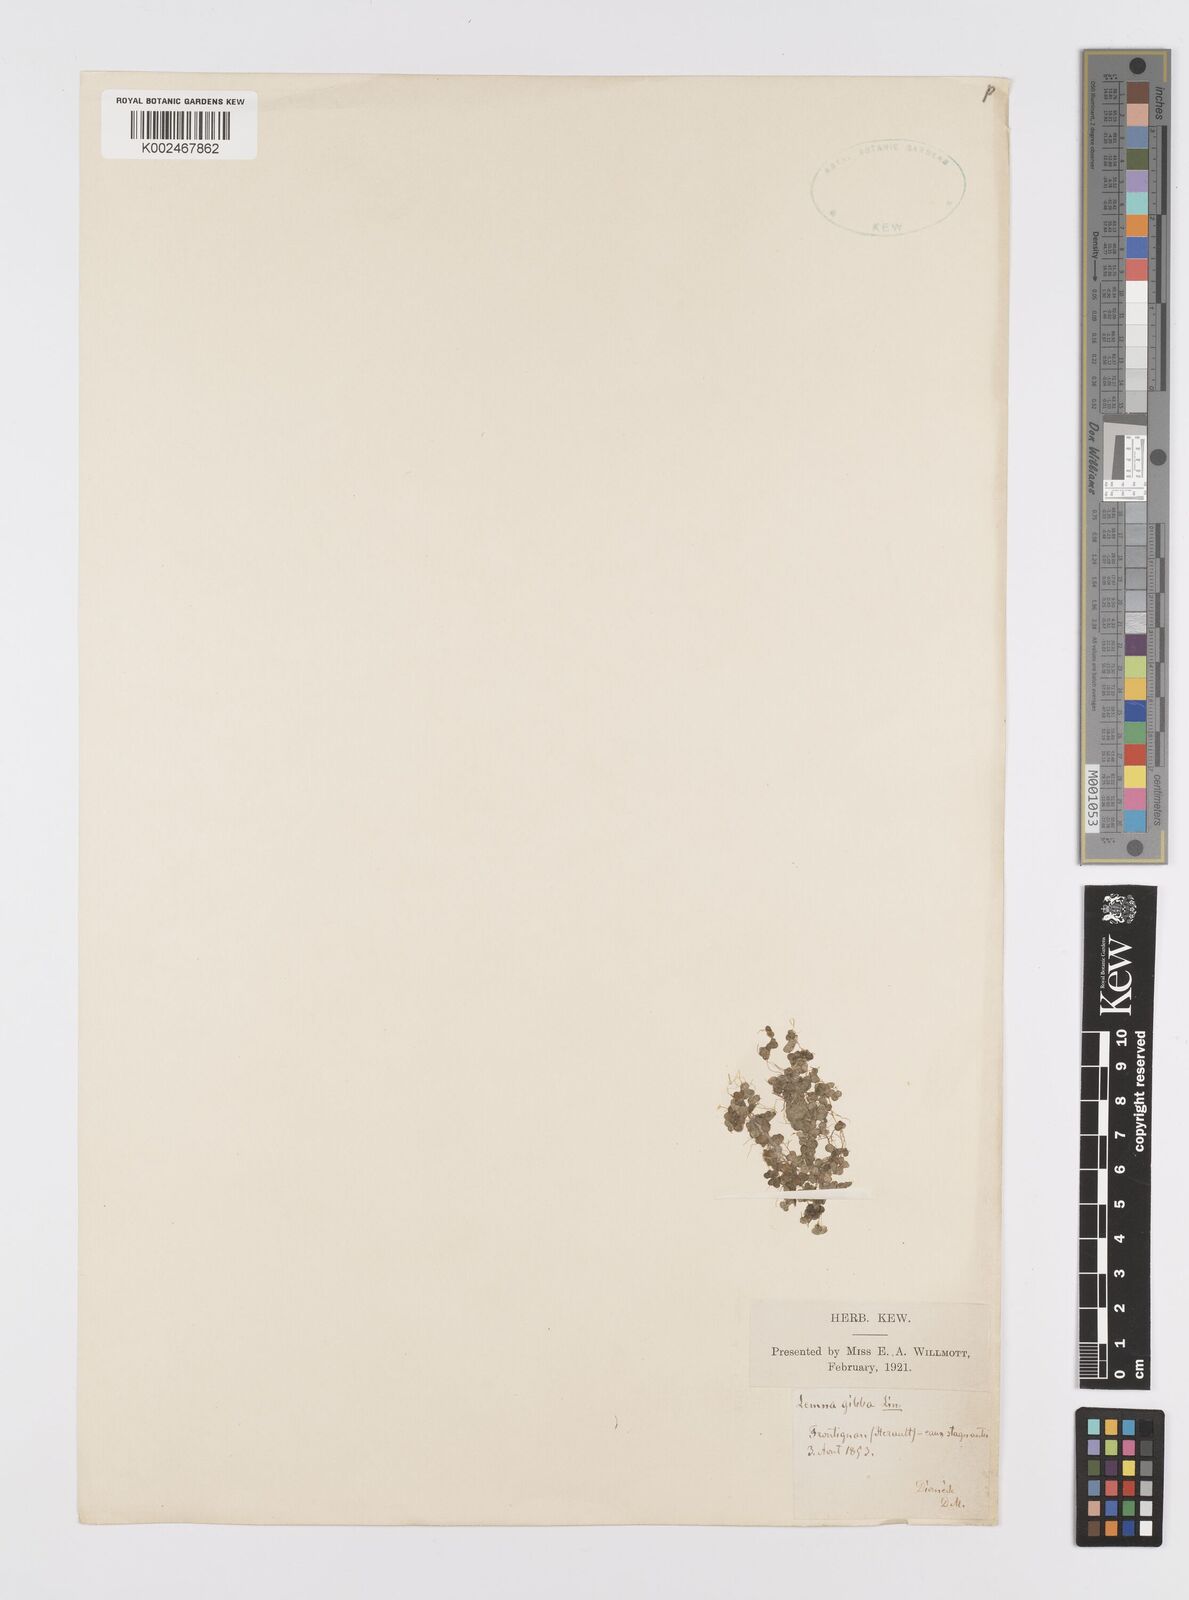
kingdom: Plantae
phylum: Tracheophyta
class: Liliopsida
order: Alismatales
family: Araceae
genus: Lemna
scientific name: Lemna gibba
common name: Fat duckweed
